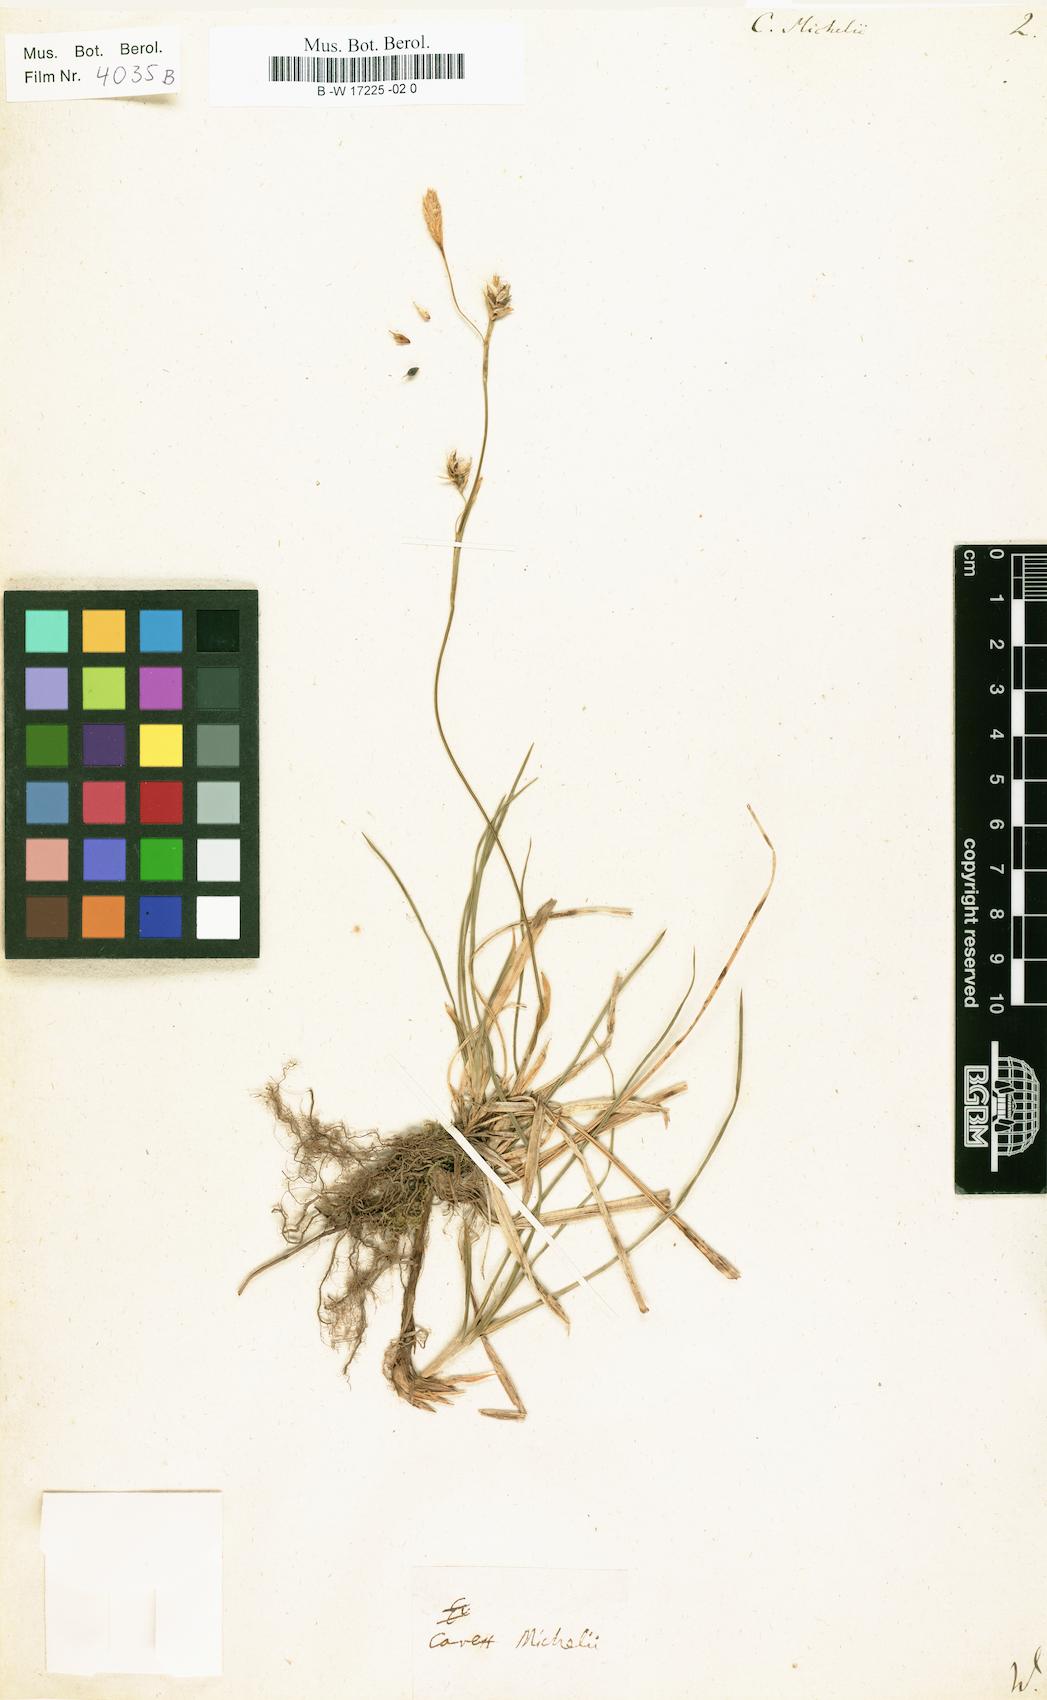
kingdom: Plantae
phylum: Tracheophyta
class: Liliopsida
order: Poales
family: Cyperaceae
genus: Carex
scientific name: Carex michelii
